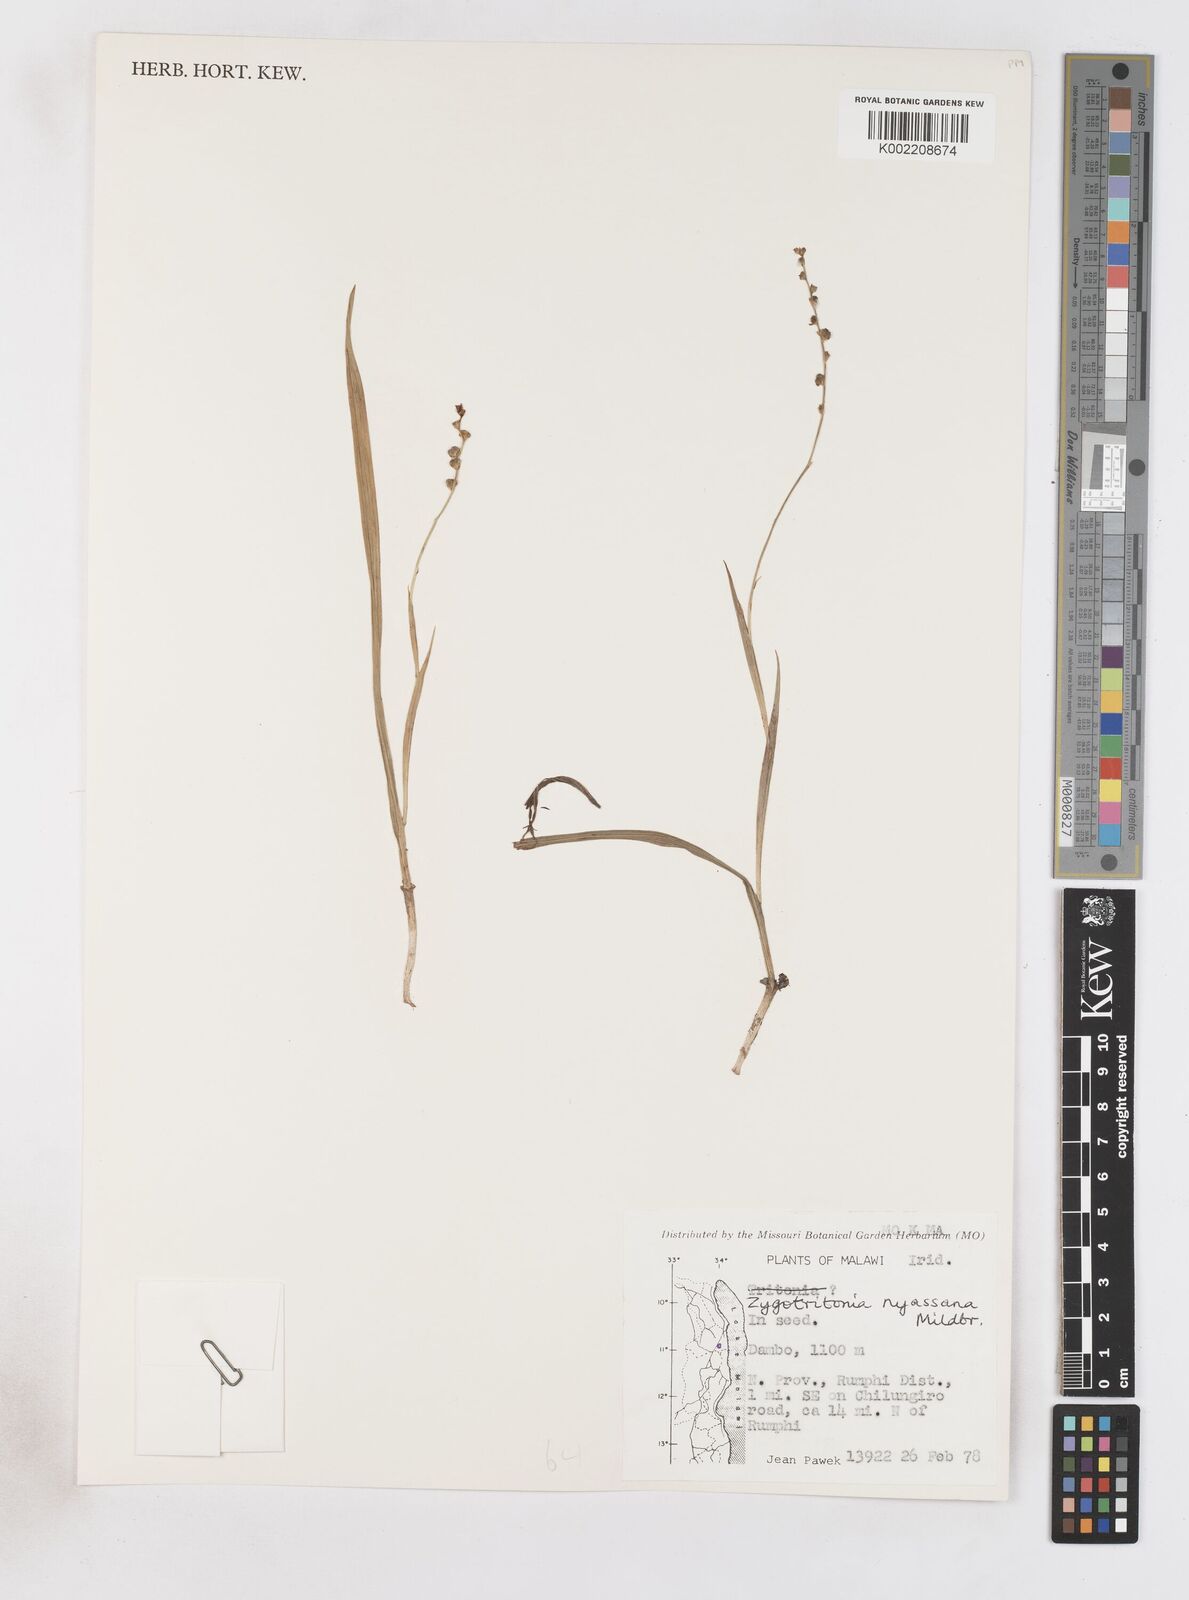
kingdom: Plantae
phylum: Tracheophyta
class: Liliopsida
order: Asparagales
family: Iridaceae
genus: Zygotritonia
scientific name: Zygotritonia nyassana
